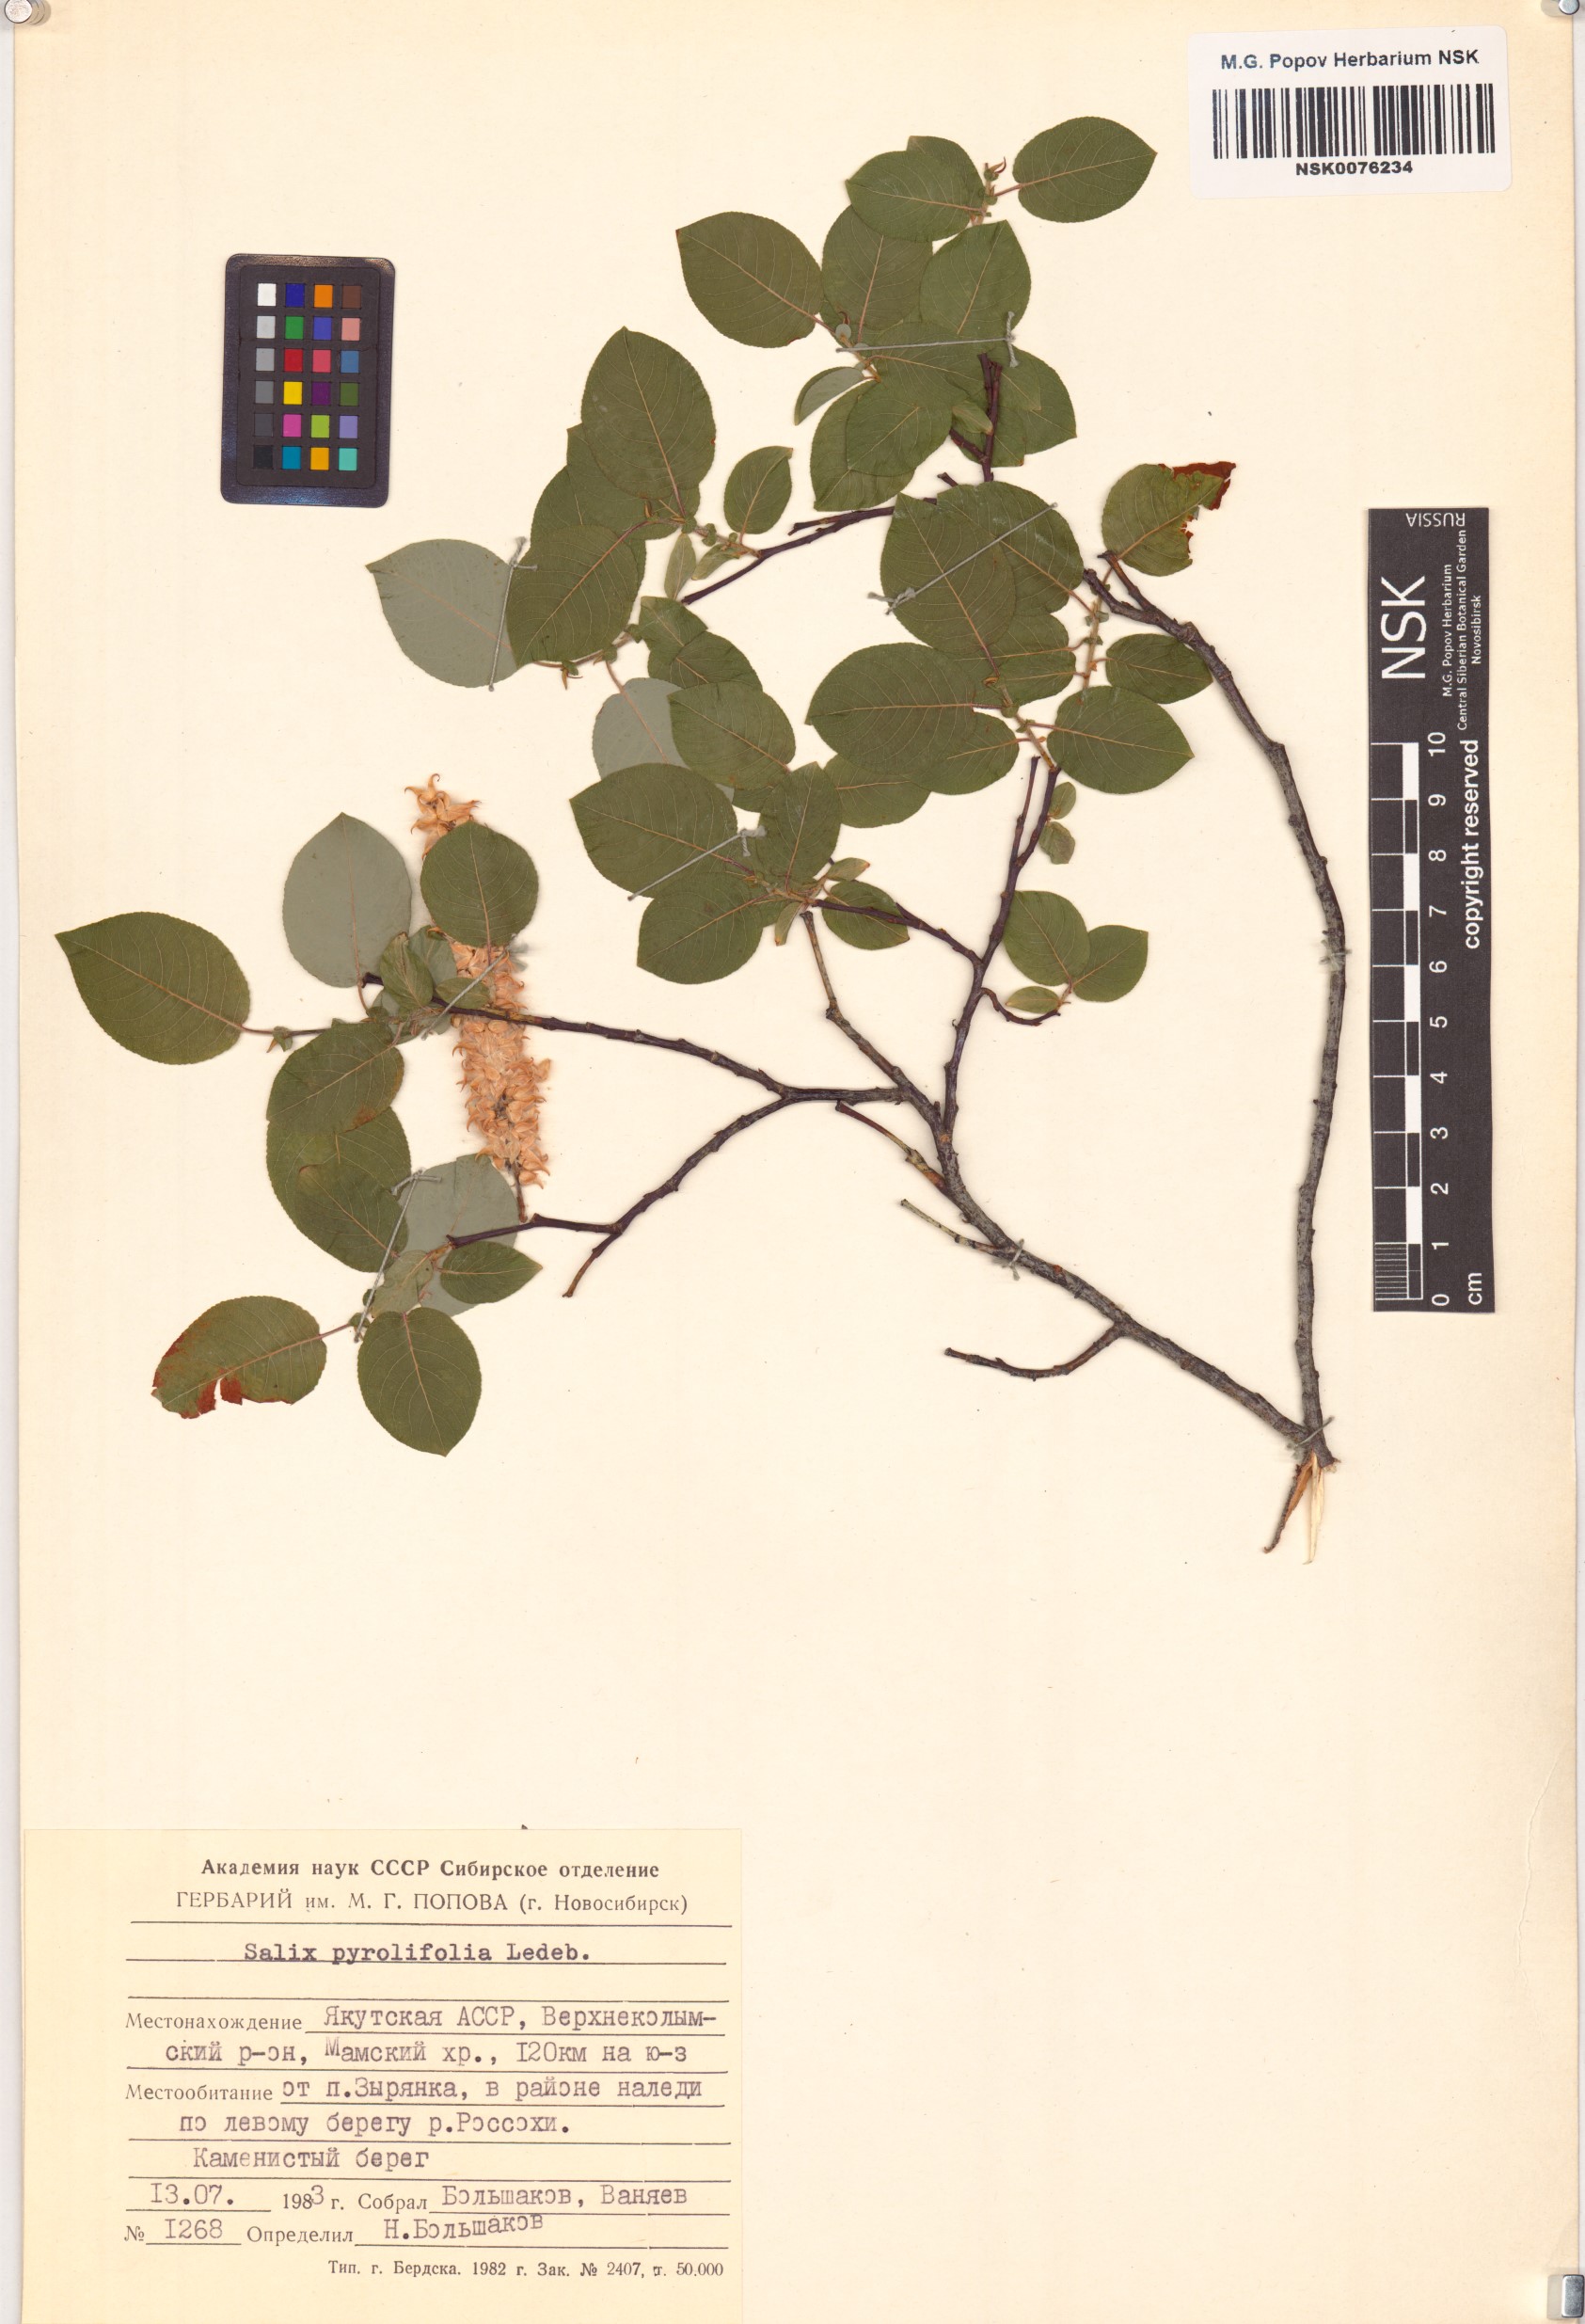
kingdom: Plantae
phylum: Tracheophyta
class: Magnoliopsida
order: Malpighiales
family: Salicaceae
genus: Salix
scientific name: Salix pyrolifolia
